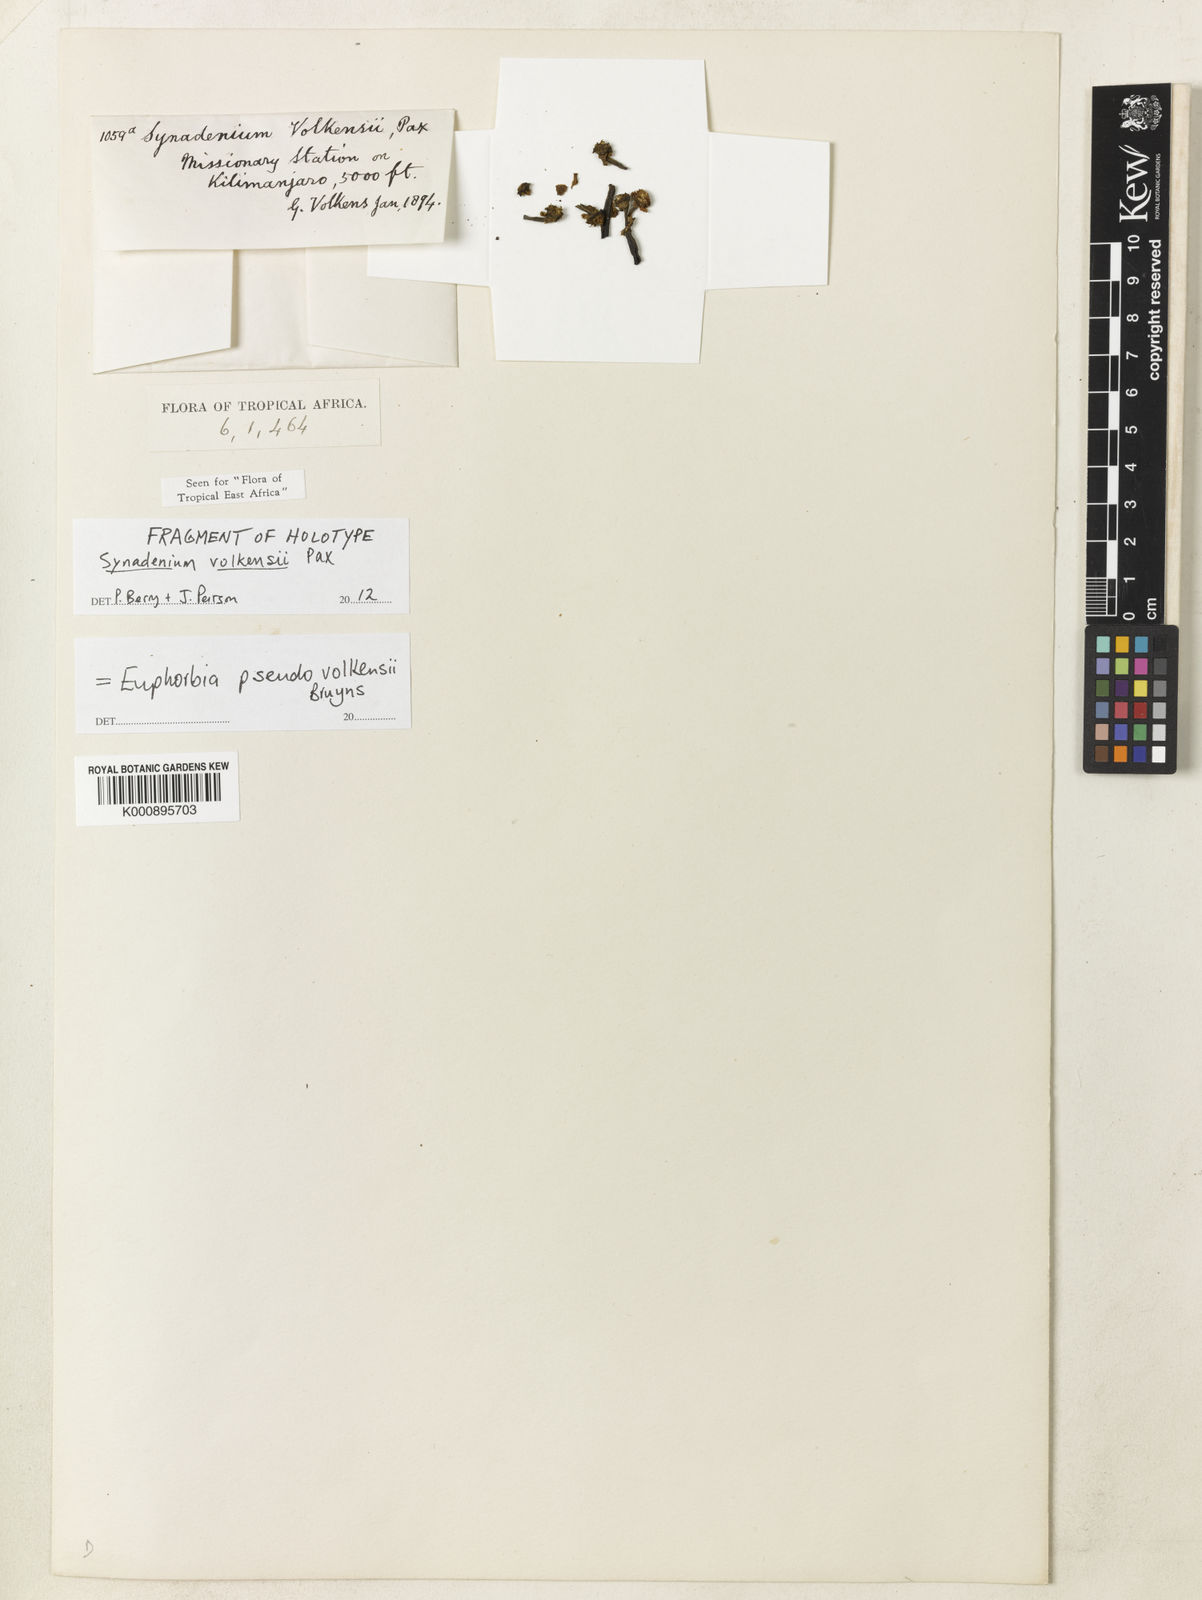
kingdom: Plantae
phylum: Tracheophyta
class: Magnoliopsida
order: Malpighiales
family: Euphorbiaceae
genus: Euphorbia
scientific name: Euphorbia pseudovolkensii
